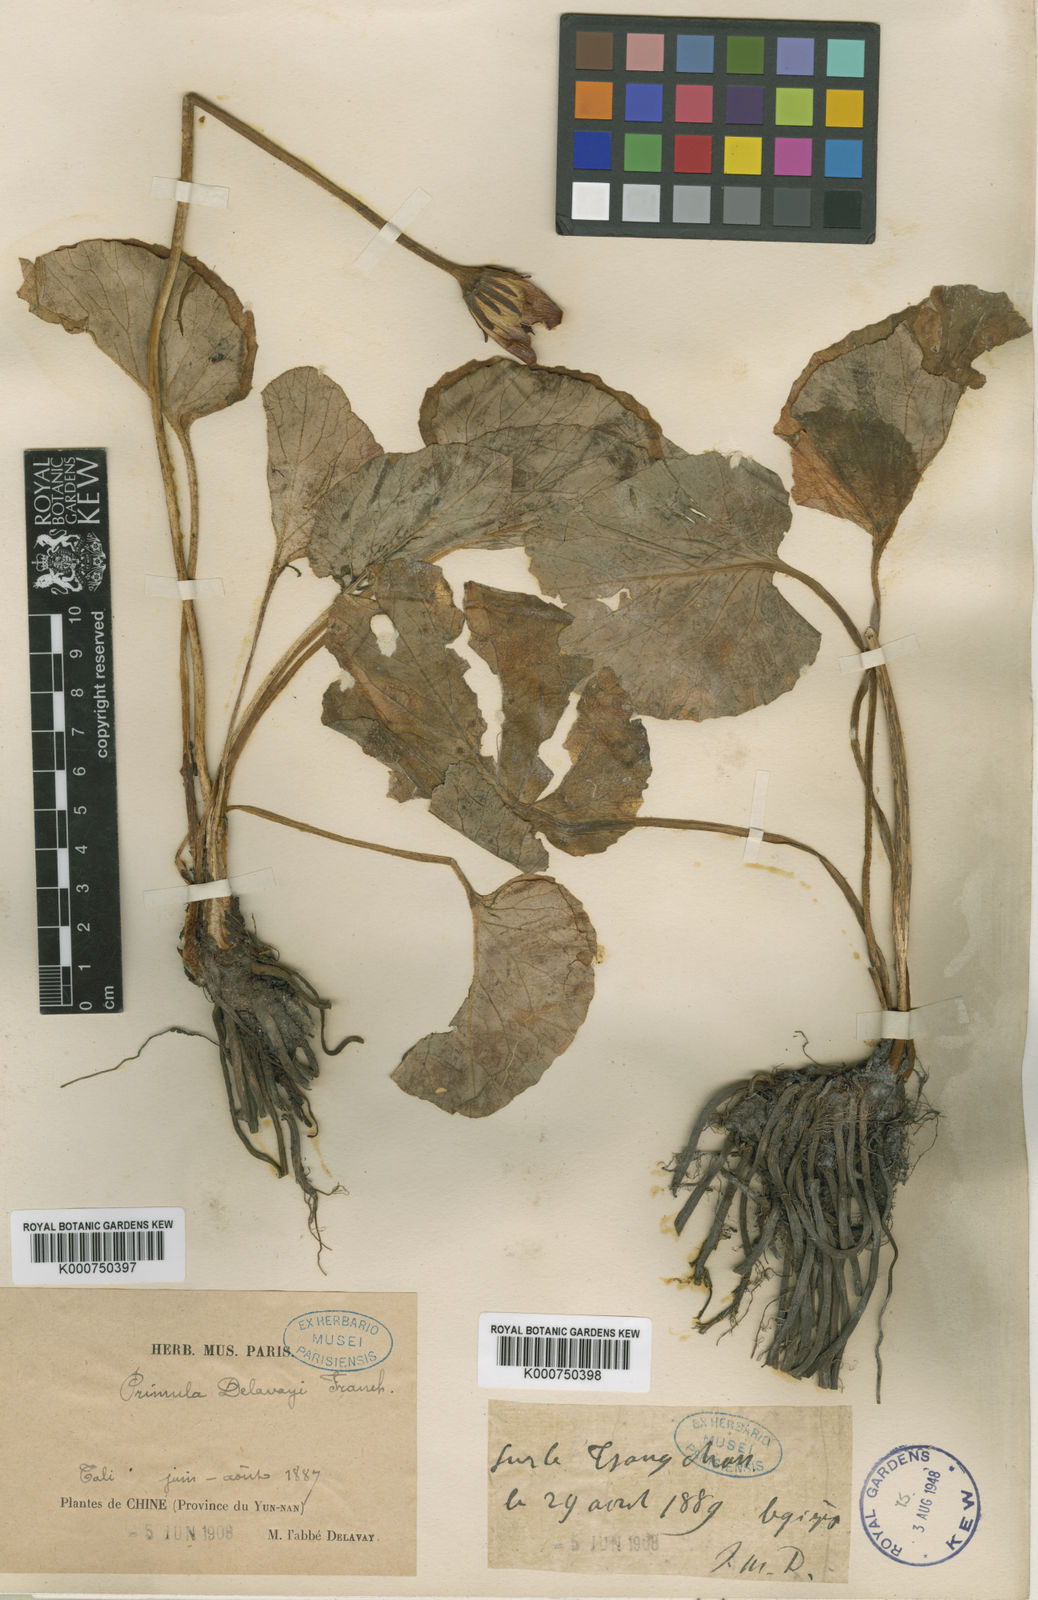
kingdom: Plantae
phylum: Tracheophyta
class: Magnoliopsida
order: Ericales
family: Primulaceae
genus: Omphalogramma
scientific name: Omphalogramma delavayi
